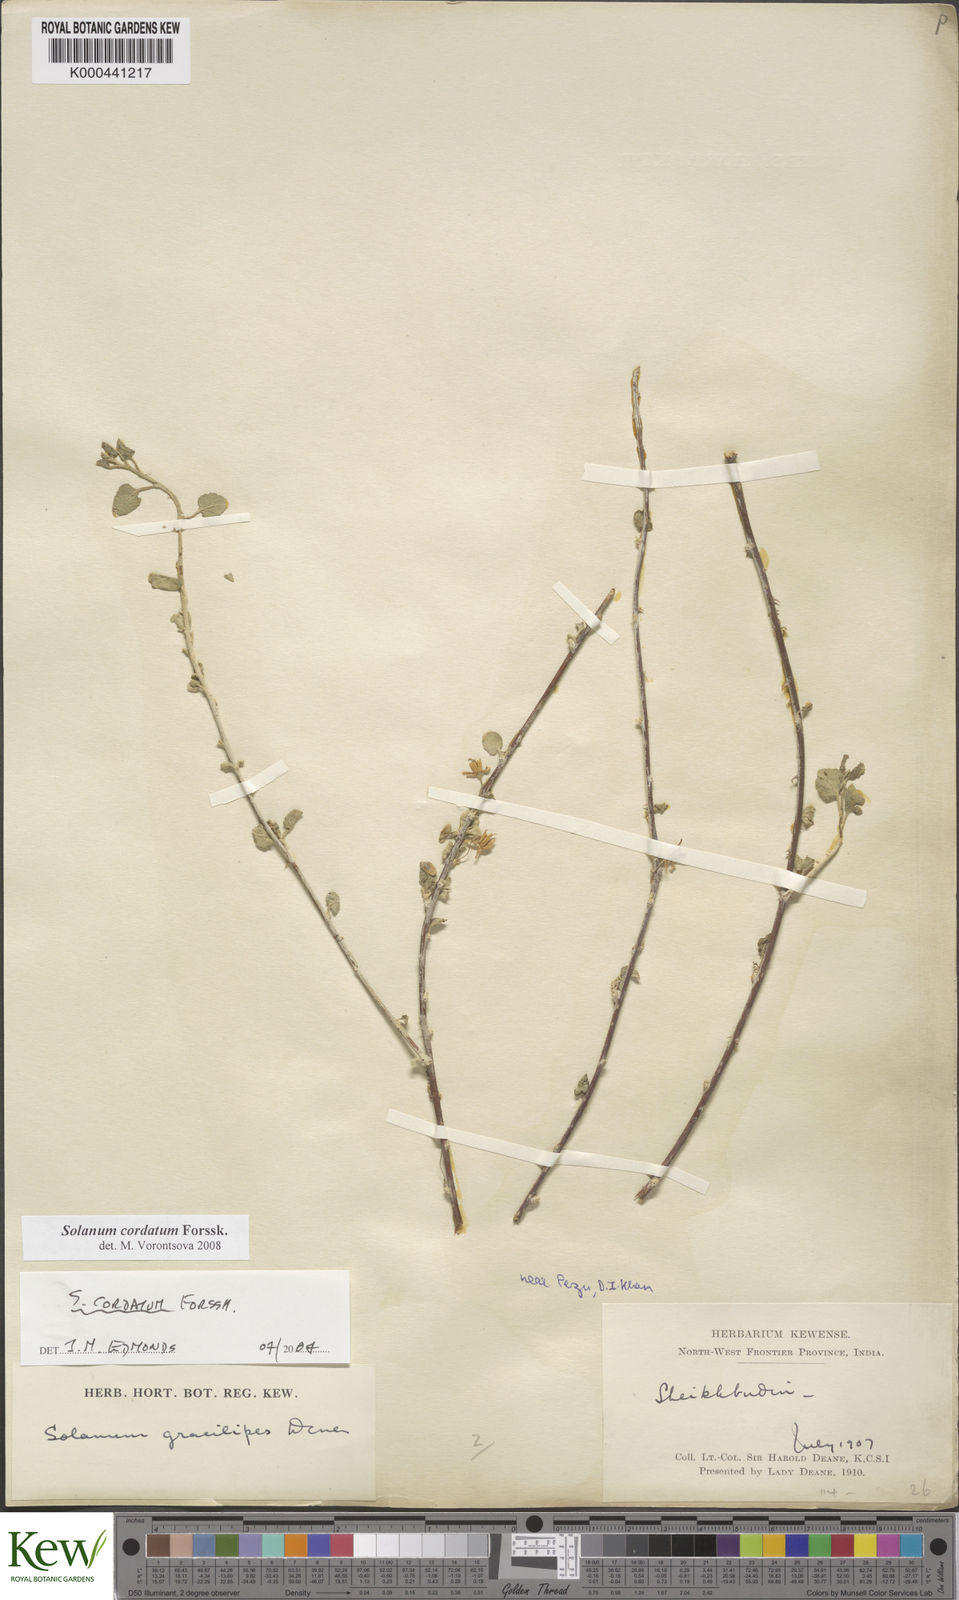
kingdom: Plantae
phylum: Tracheophyta
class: Magnoliopsida
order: Solanales
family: Solanaceae
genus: Solanum
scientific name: Solanum cordatum
